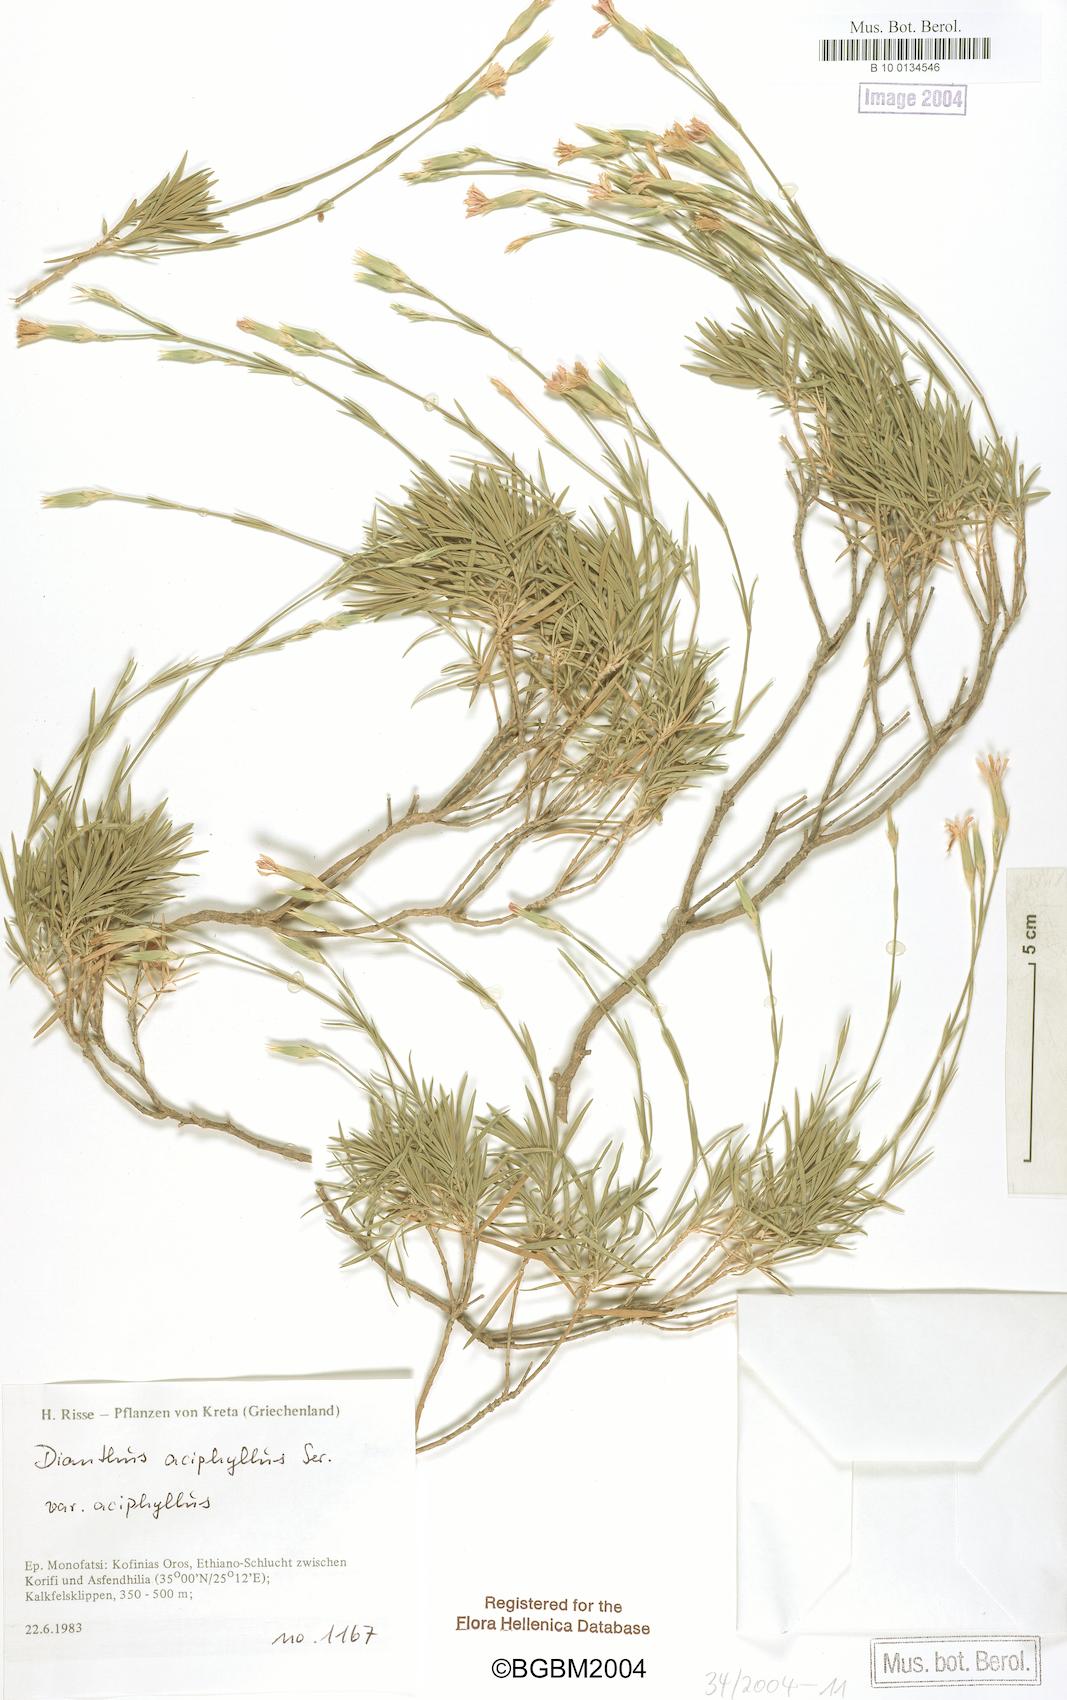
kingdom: Plantae
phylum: Tracheophyta
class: Magnoliopsida
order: Caryophyllales
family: Caryophyllaceae
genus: Dianthus
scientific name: Dianthus aciphyllus
